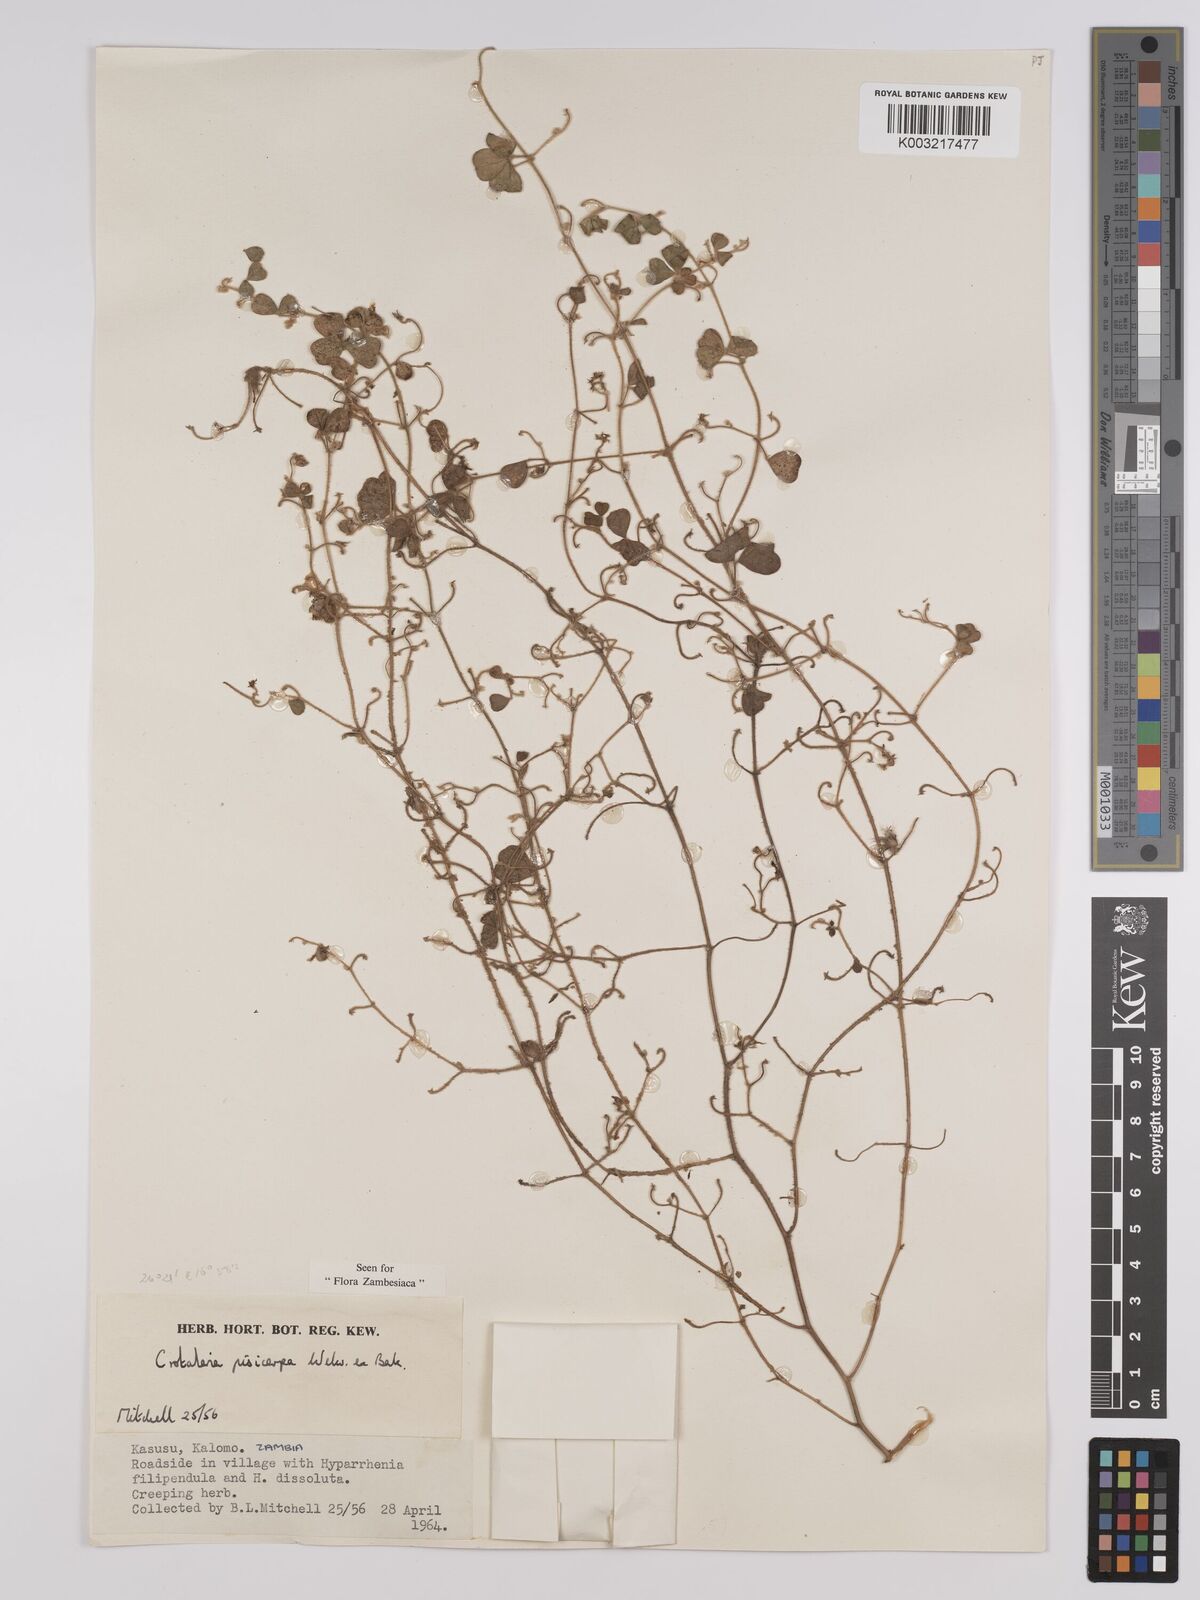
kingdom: Plantae
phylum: Tracheophyta
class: Magnoliopsida
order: Fabales
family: Fabaceae
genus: Crotalaria
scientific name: Crotalaria pisicarpa
